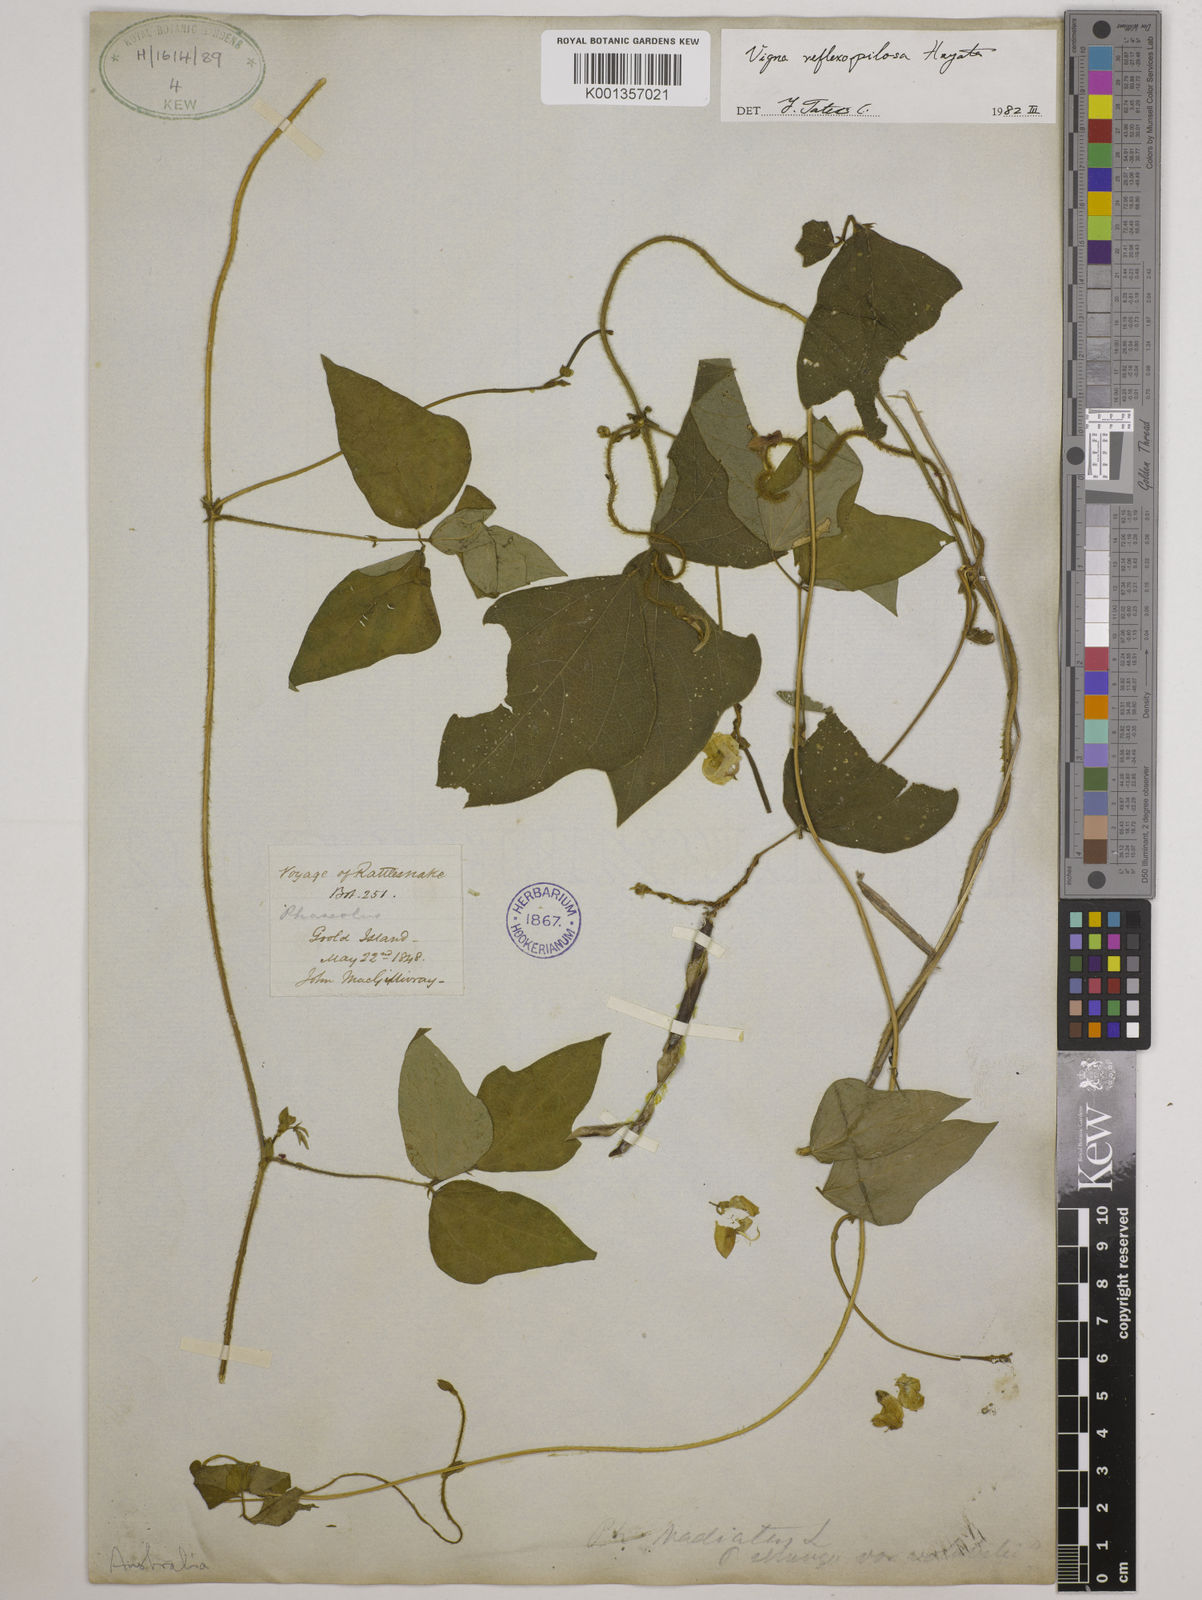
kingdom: Plantae
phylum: Tracheophyta
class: Magnoliopsida
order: Fabales
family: Fabaceae
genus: Vigna
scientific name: Vigna reflexopilosa
